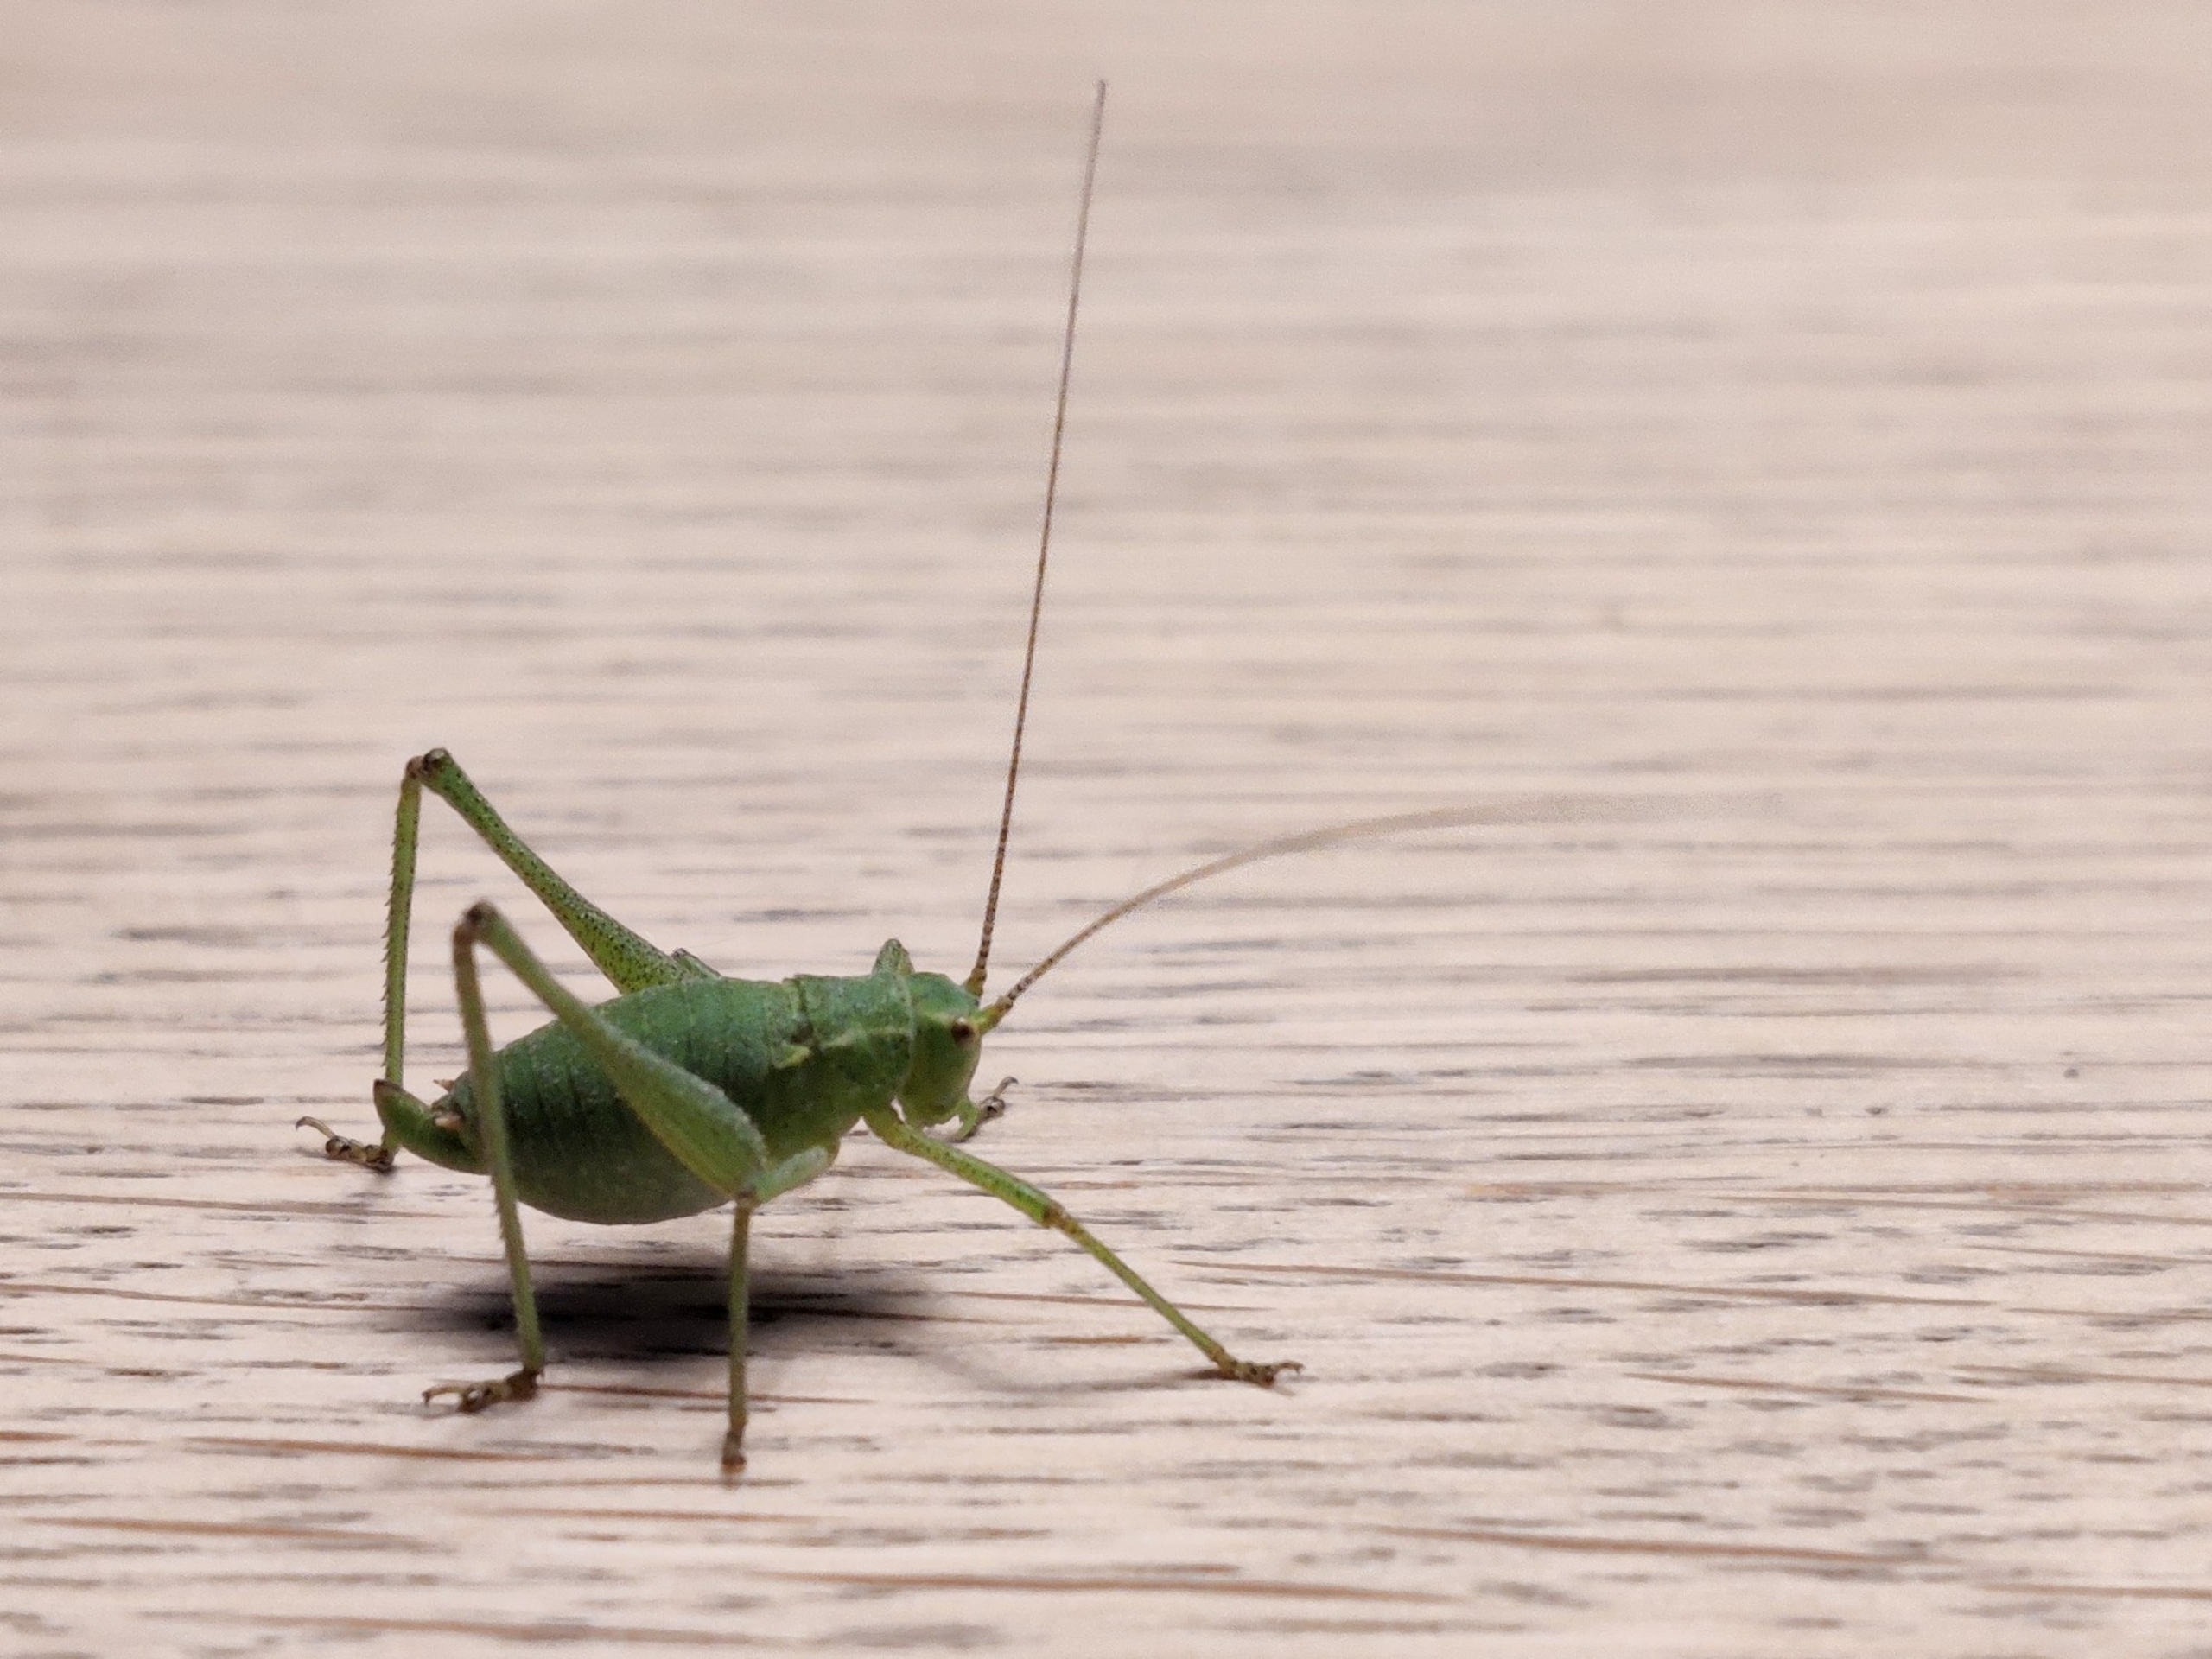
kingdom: Animalia
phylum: Arthropoda
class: Insecta
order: Orthoptera
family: Tettigoniidae
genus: Leptophyes
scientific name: Leptophyes punctatissima
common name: Krumknivgræshoppe
